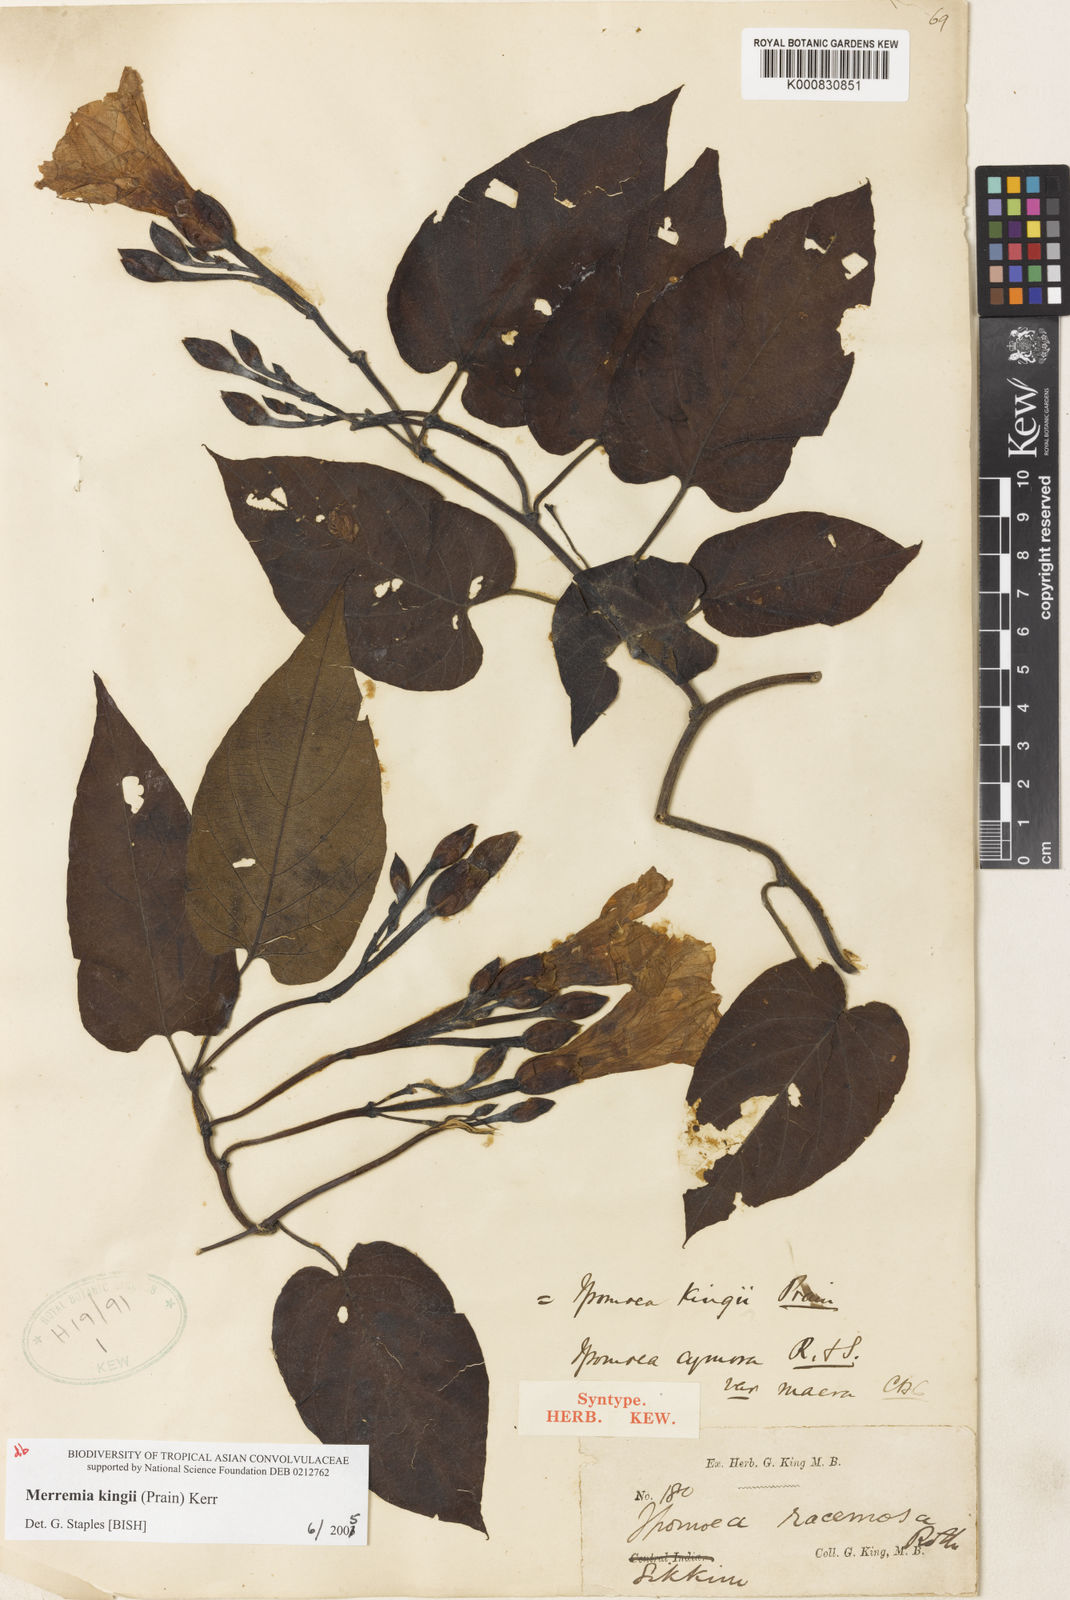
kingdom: Plantae
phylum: Tracheophyta
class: Magnoliopsida
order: Solanales
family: Convolvulaceae
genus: Camonea
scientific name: Camonea
